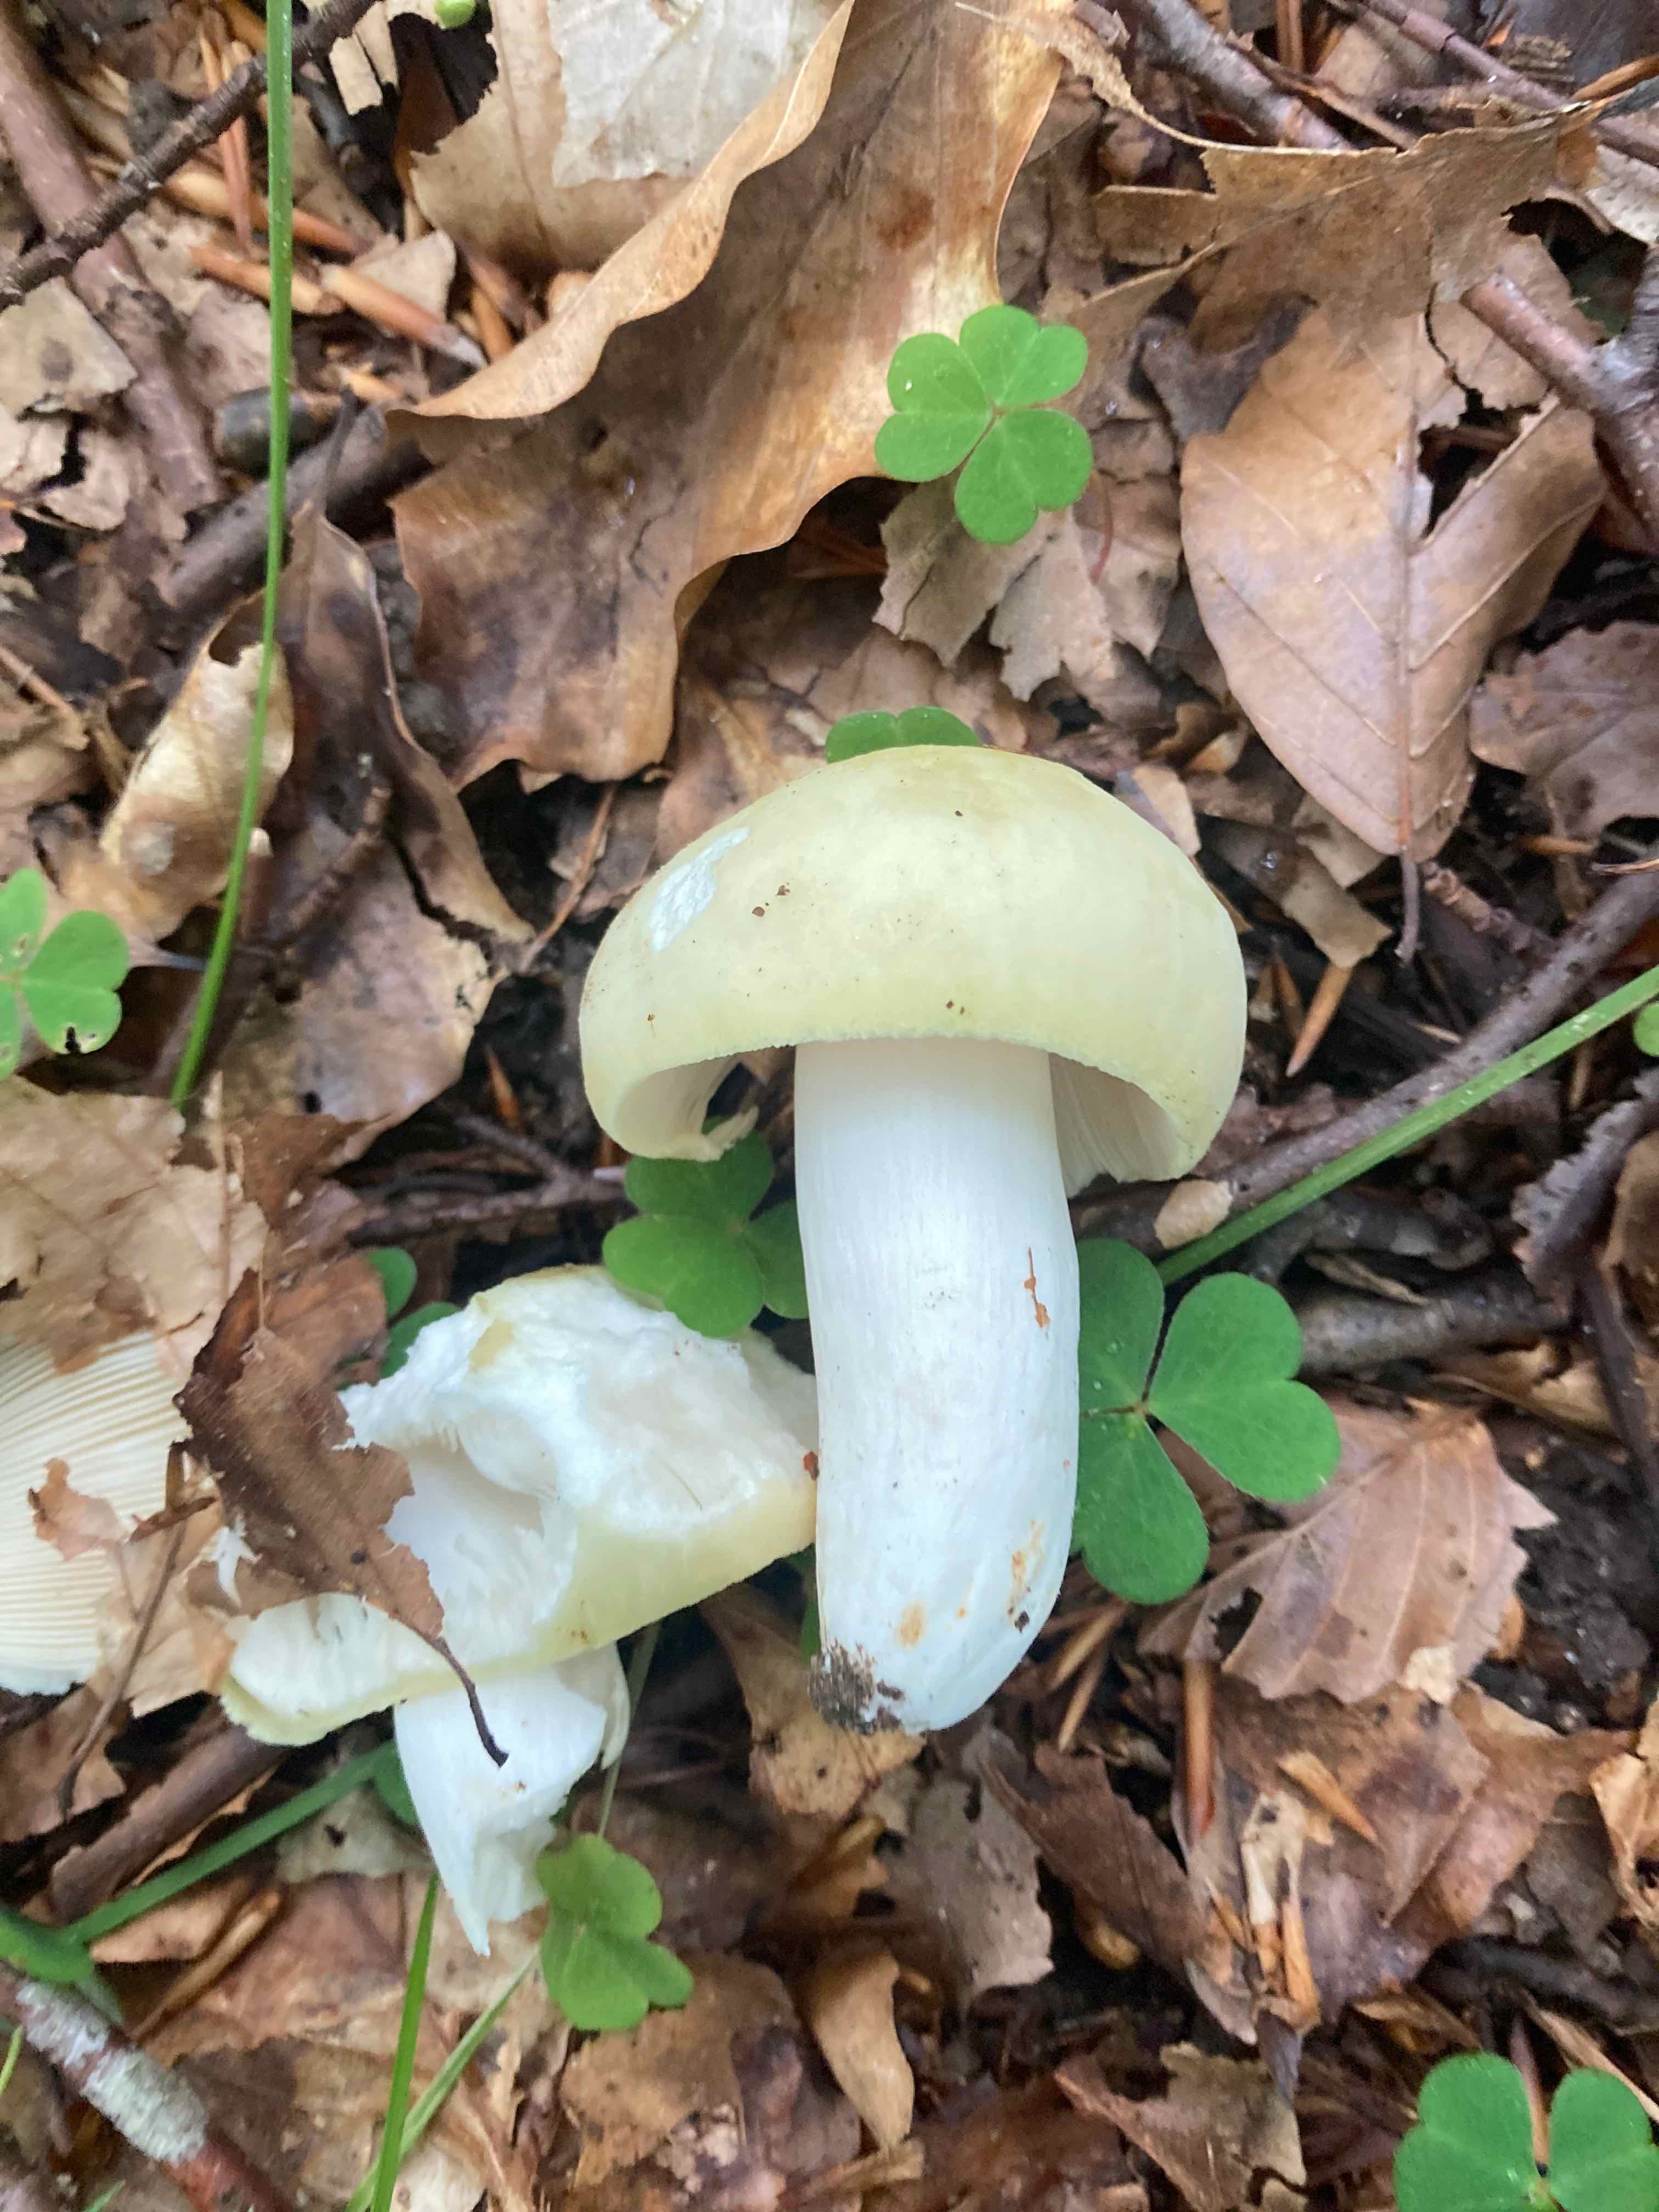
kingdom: Fungi
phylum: Basidiomycota
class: Agaricomycetes
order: Russulales
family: Russulaceae
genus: Russula
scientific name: Russula violeipes
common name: ferskengul skørhat
